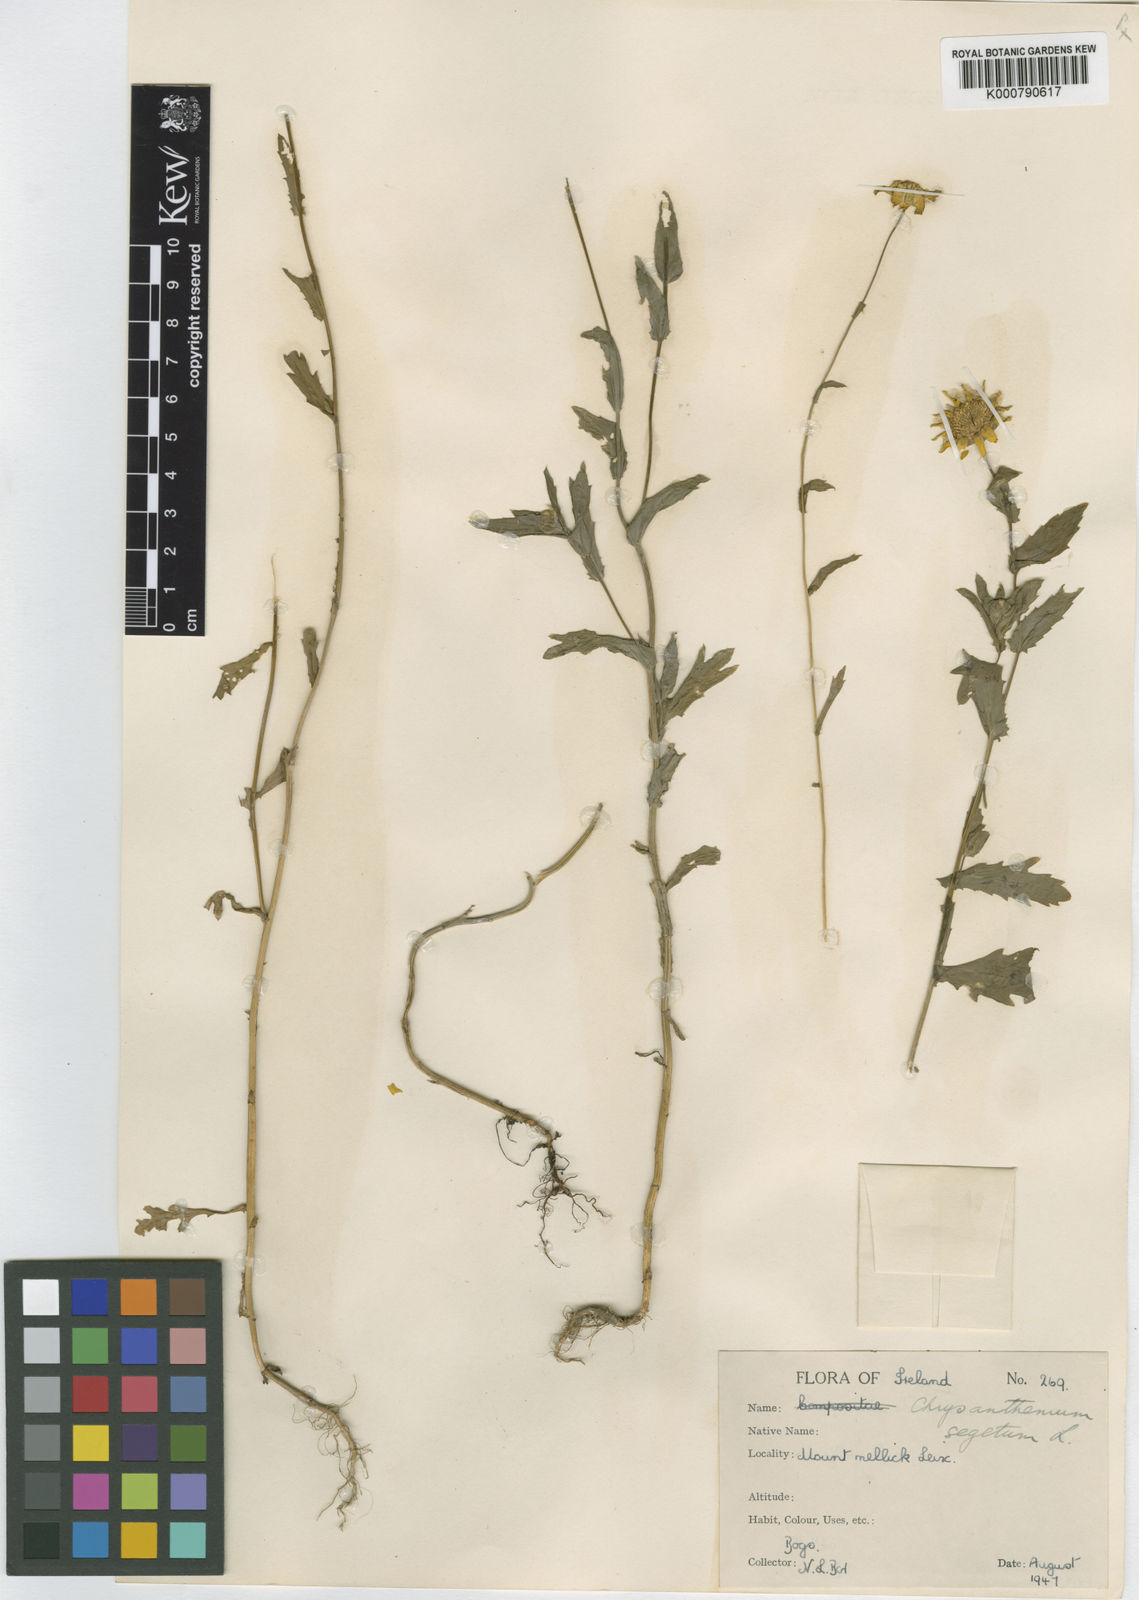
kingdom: Plantae
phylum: Tracheophyta
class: Magnoliopsida
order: Asterales
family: Asteraceae
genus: Glebionis
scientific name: Glebionis
